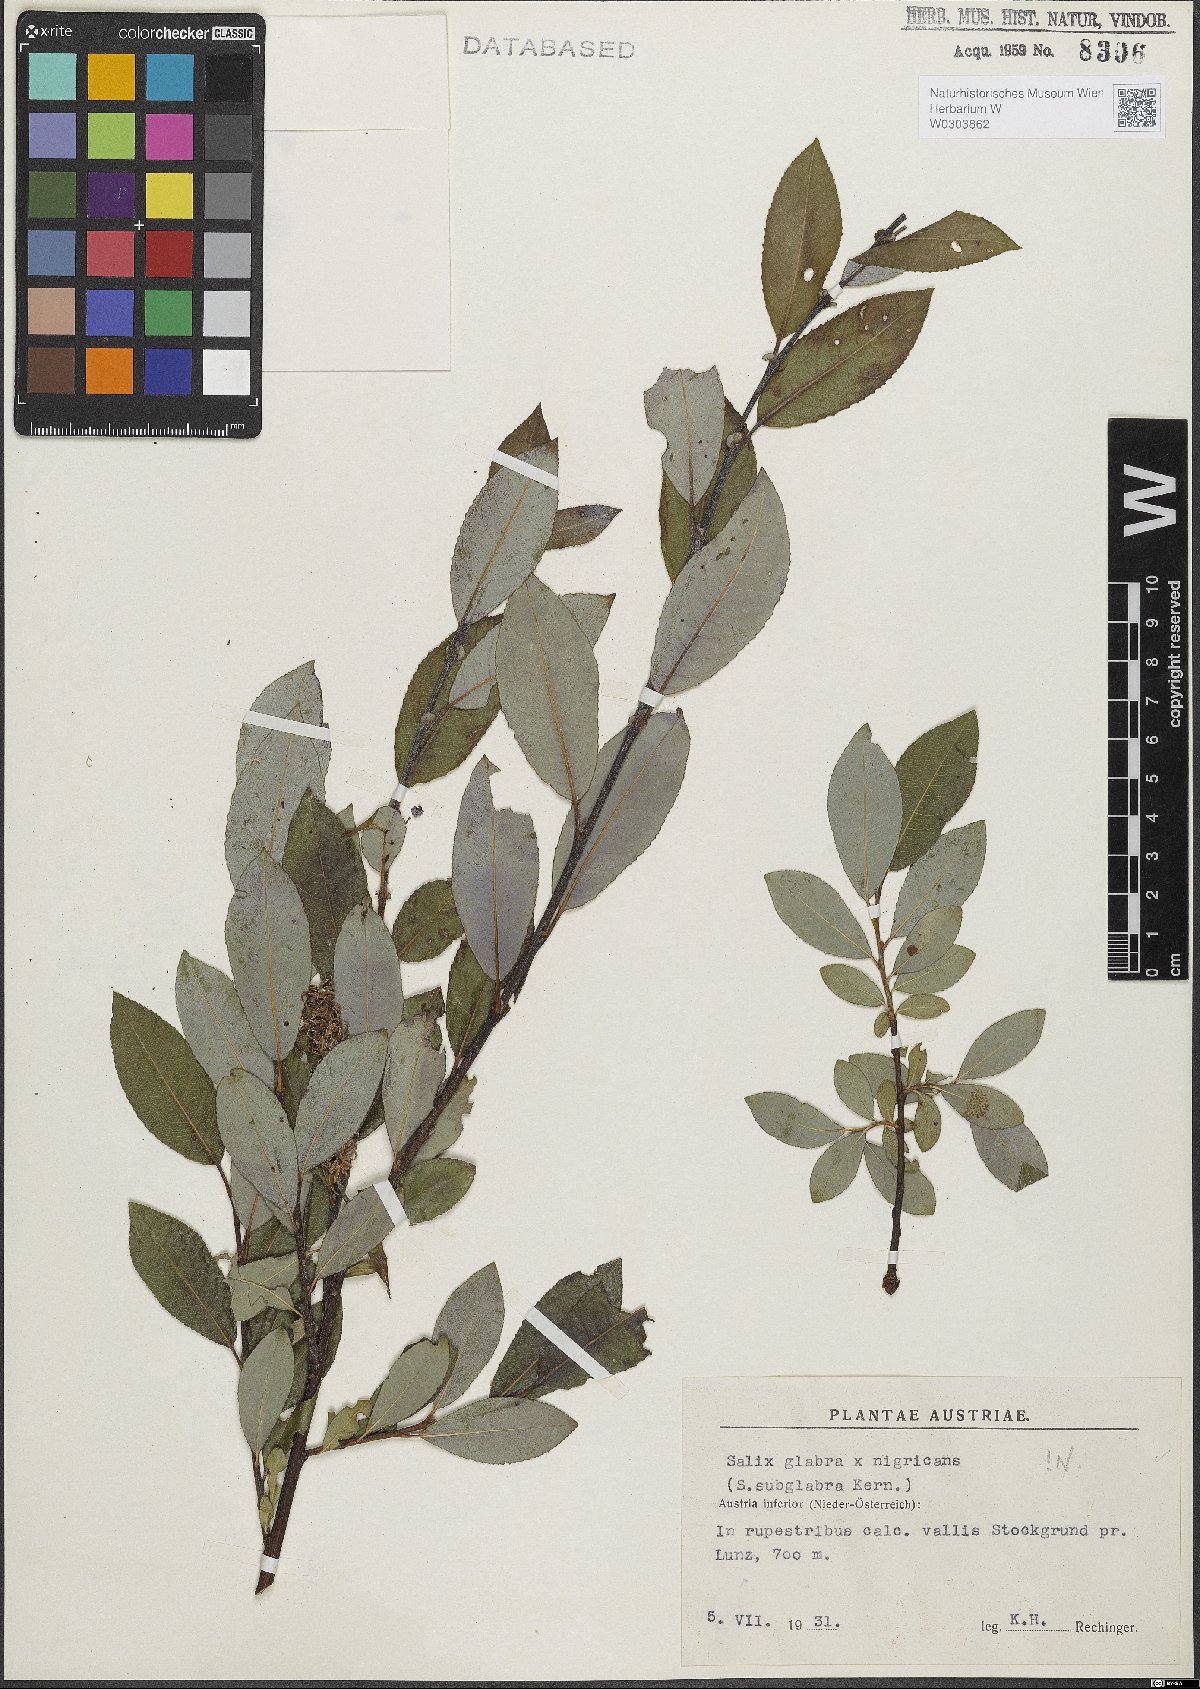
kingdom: Plantae
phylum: Tracheophyta
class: Magnoliopsida
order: Malpighiales
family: Salicaceae
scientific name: Salicaceae
